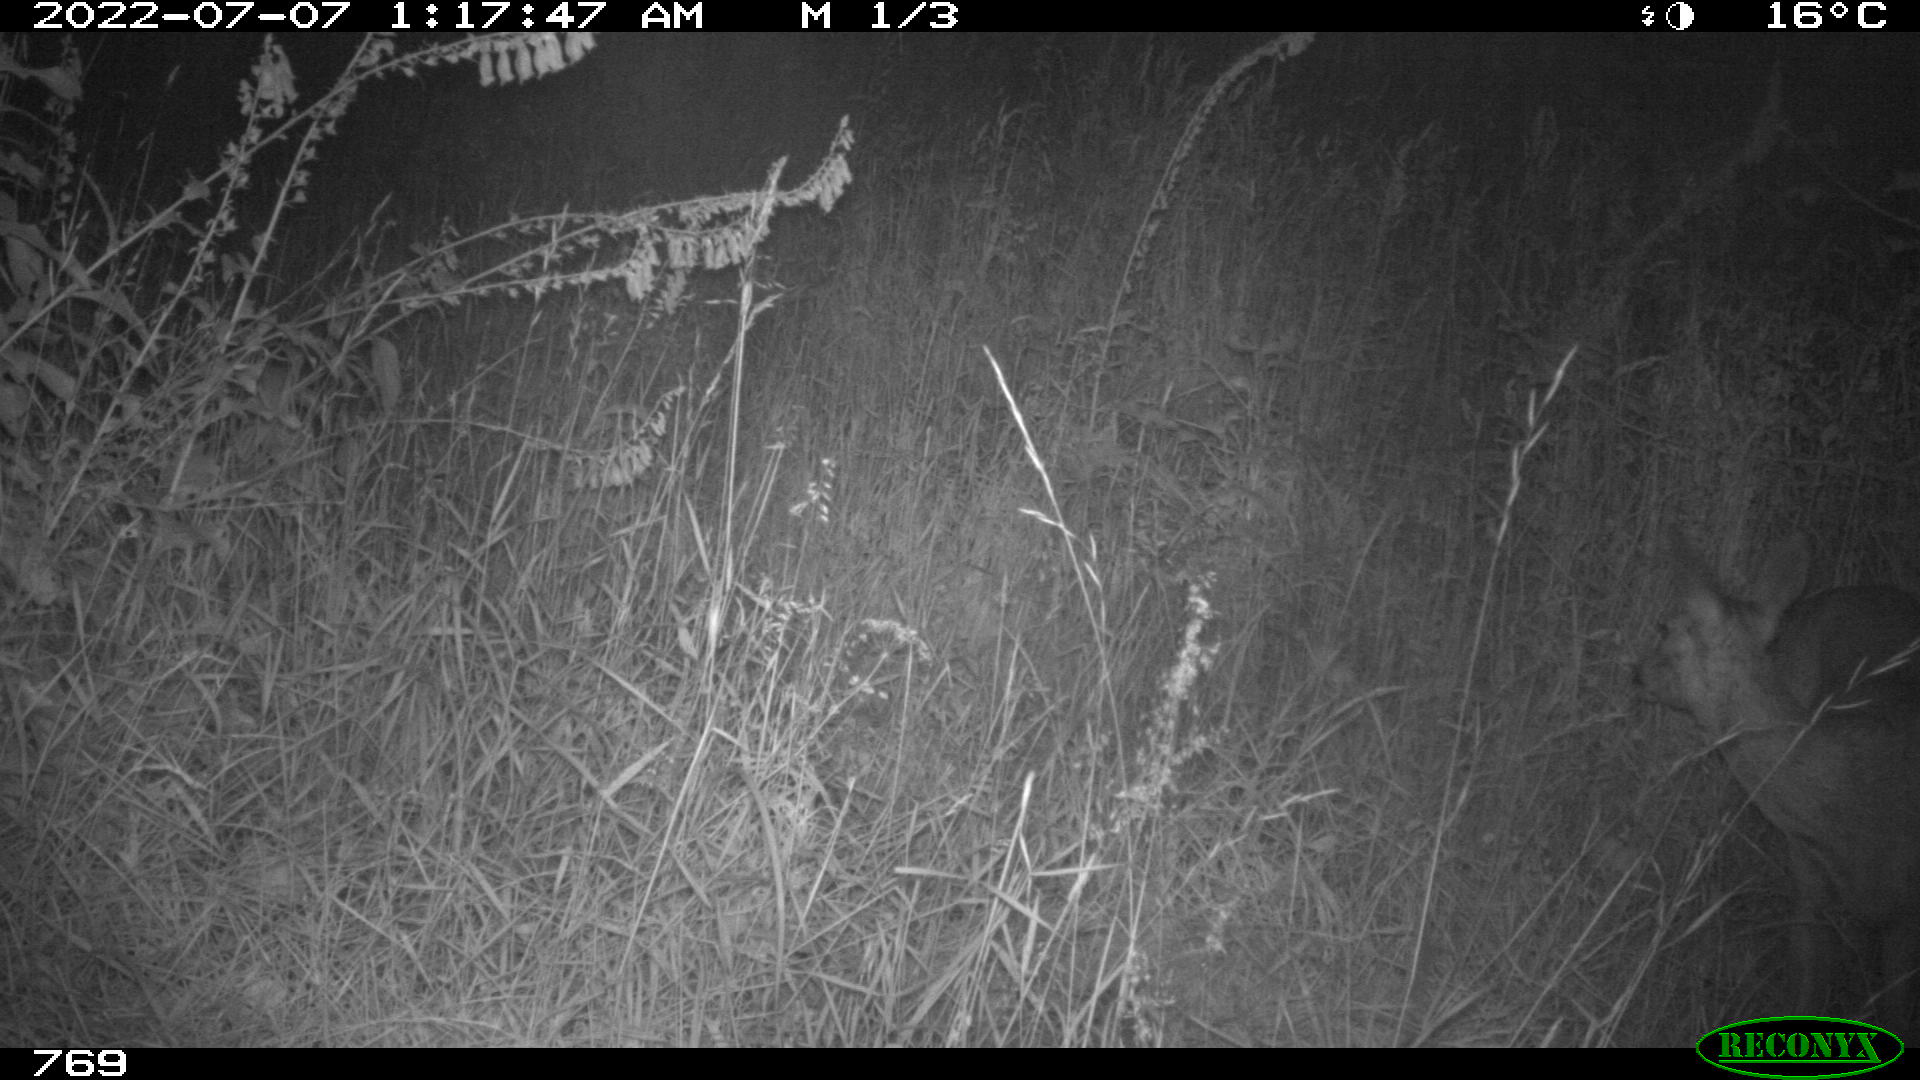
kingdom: Animalia
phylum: Chordata
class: Mammalia
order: Artiodactyla
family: Cervidae
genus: Capreolus
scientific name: Capreolus capreolus
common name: Western roe deer
